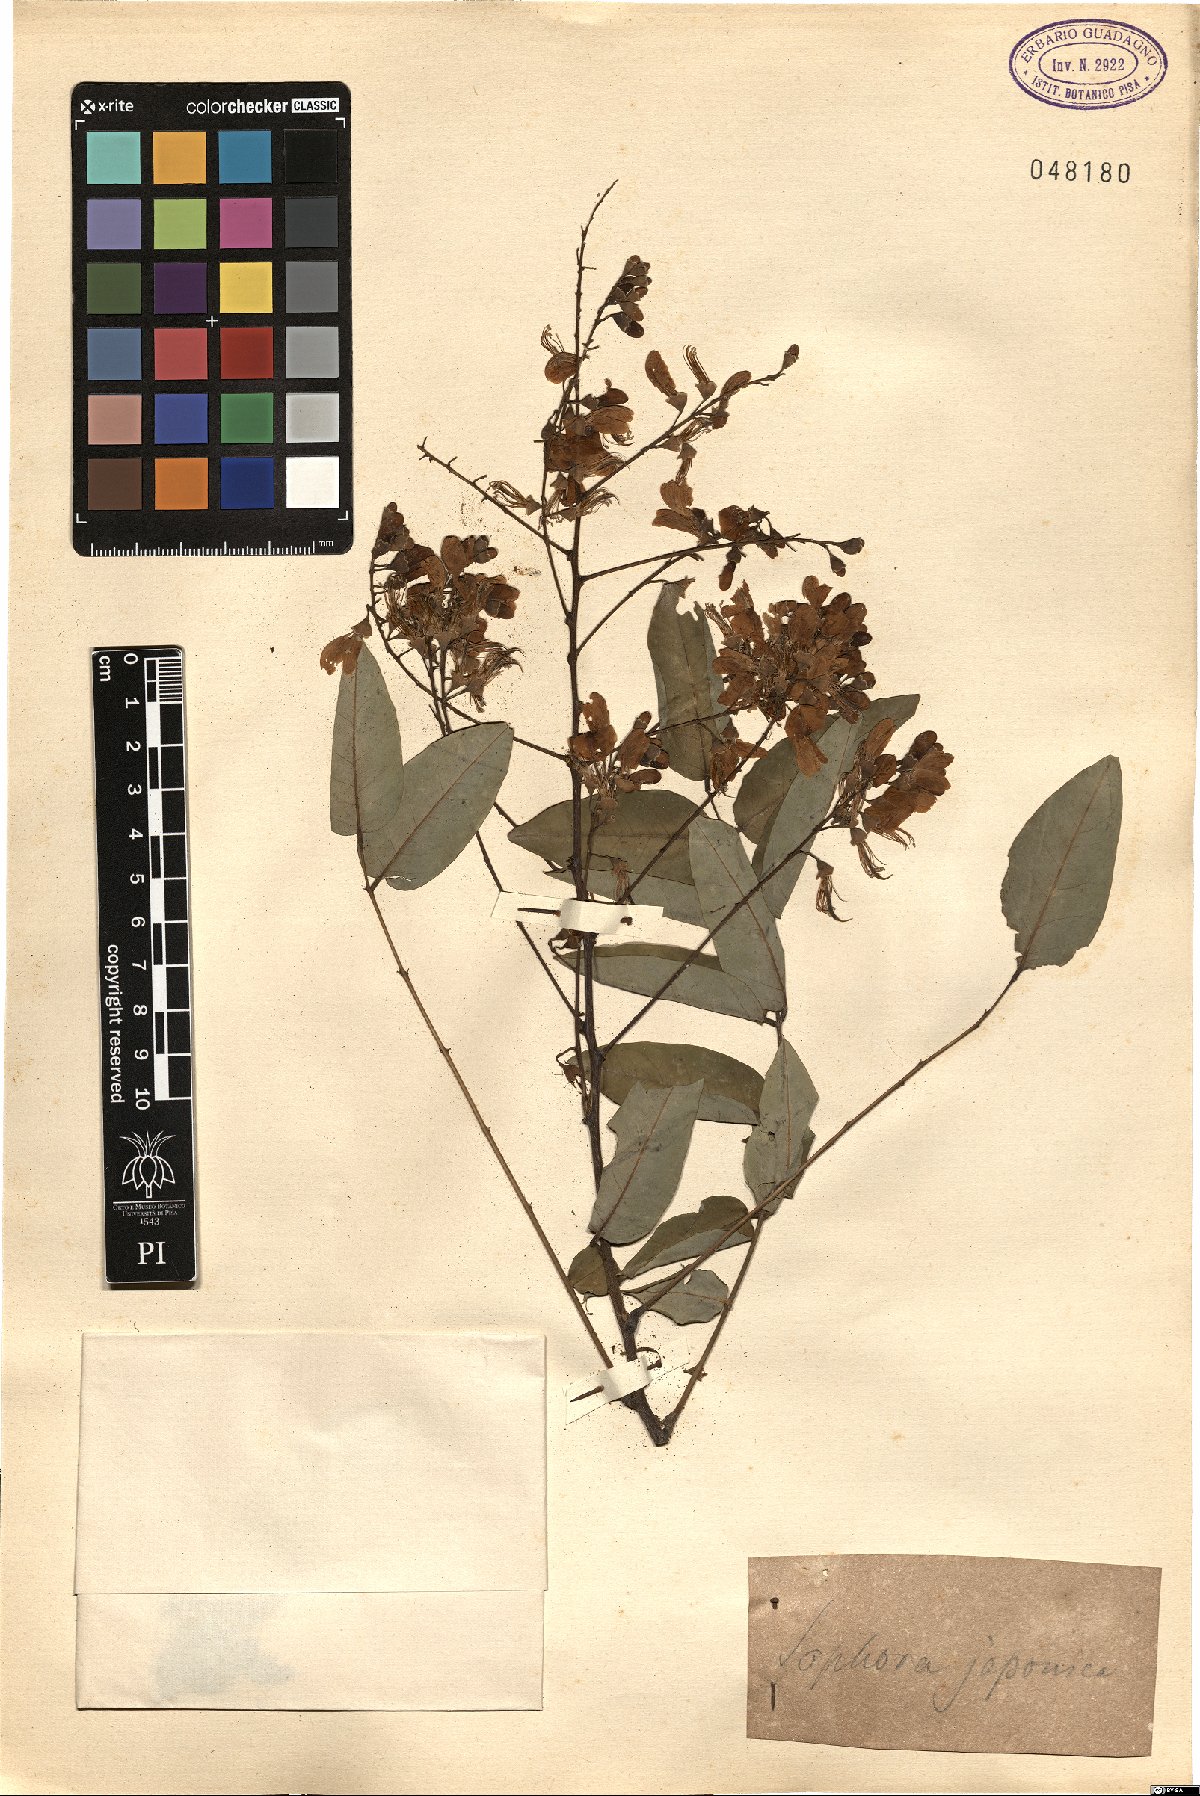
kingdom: Plantae
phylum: Tracheophyta
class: Magnoliopsida
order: Fabales
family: Fabaceae
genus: Styphnolobium
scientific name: Styphnolobium japonicum
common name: Chinese scholartree
